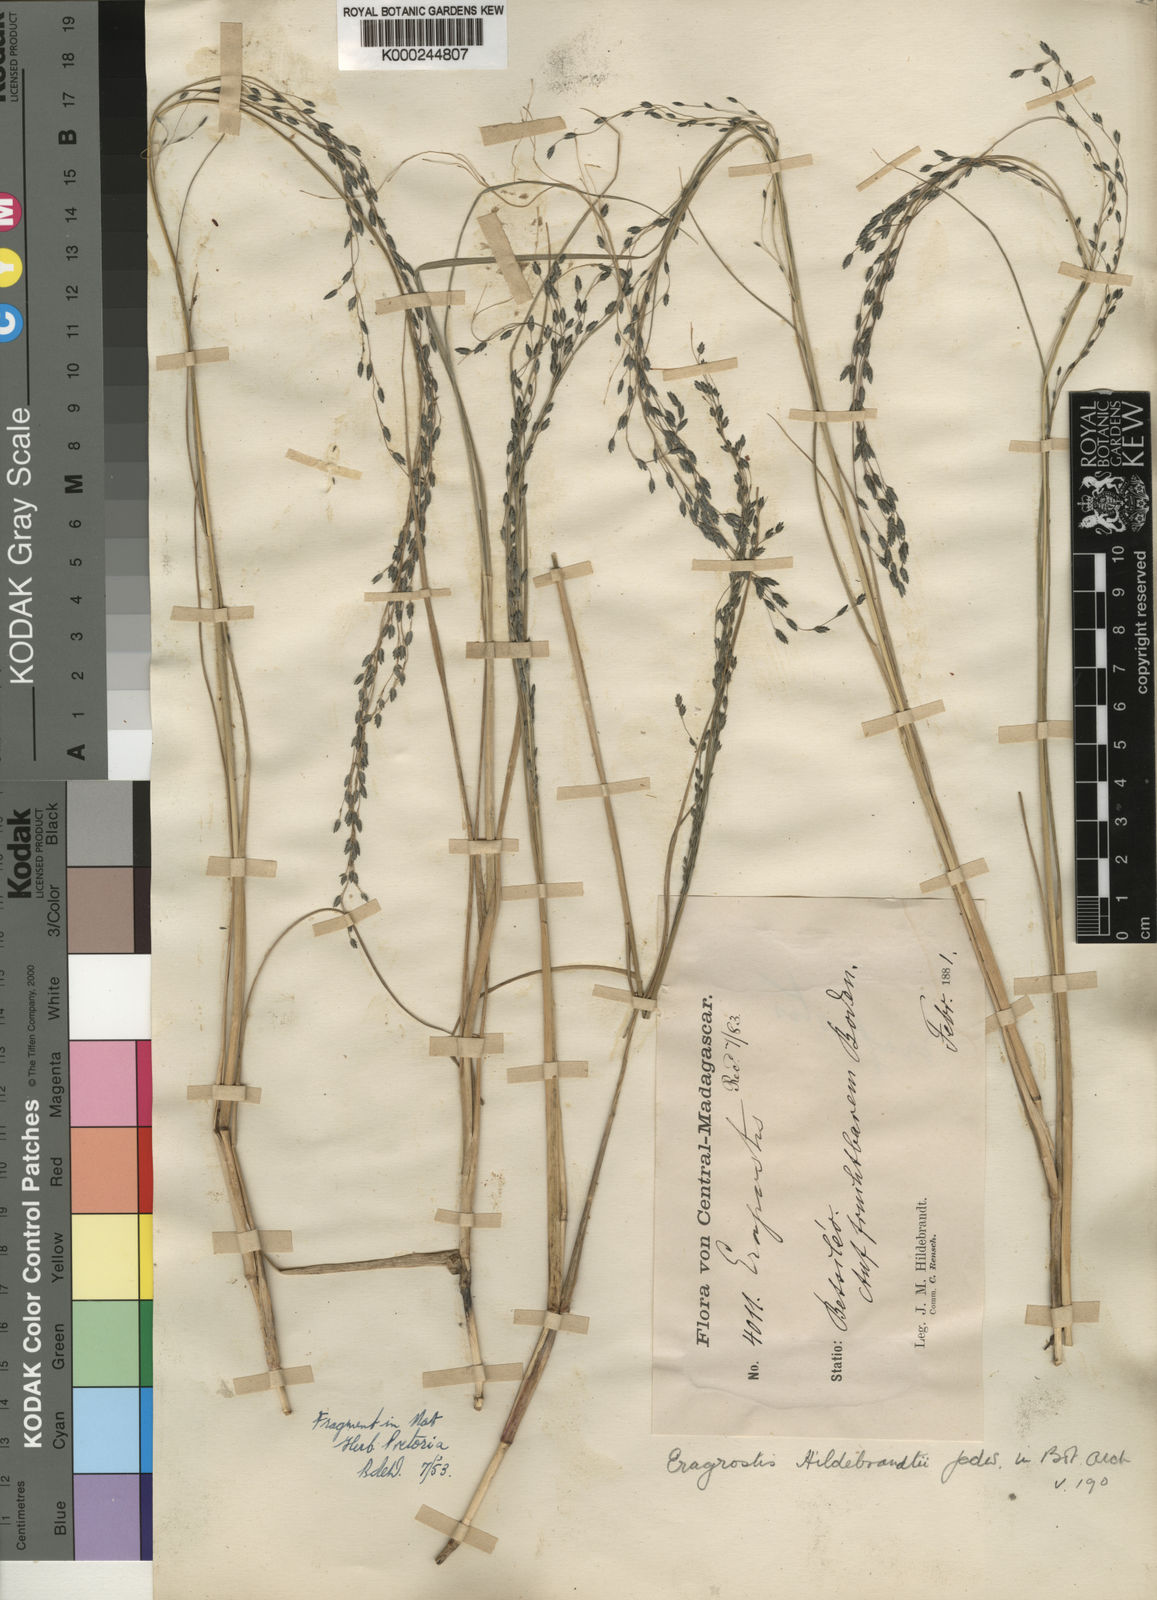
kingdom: Plantae
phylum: Tracheophyta
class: Liliopsida
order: Poales
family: Poaceae
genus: Eragrostis
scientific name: Eragrostis hildebrandtii
